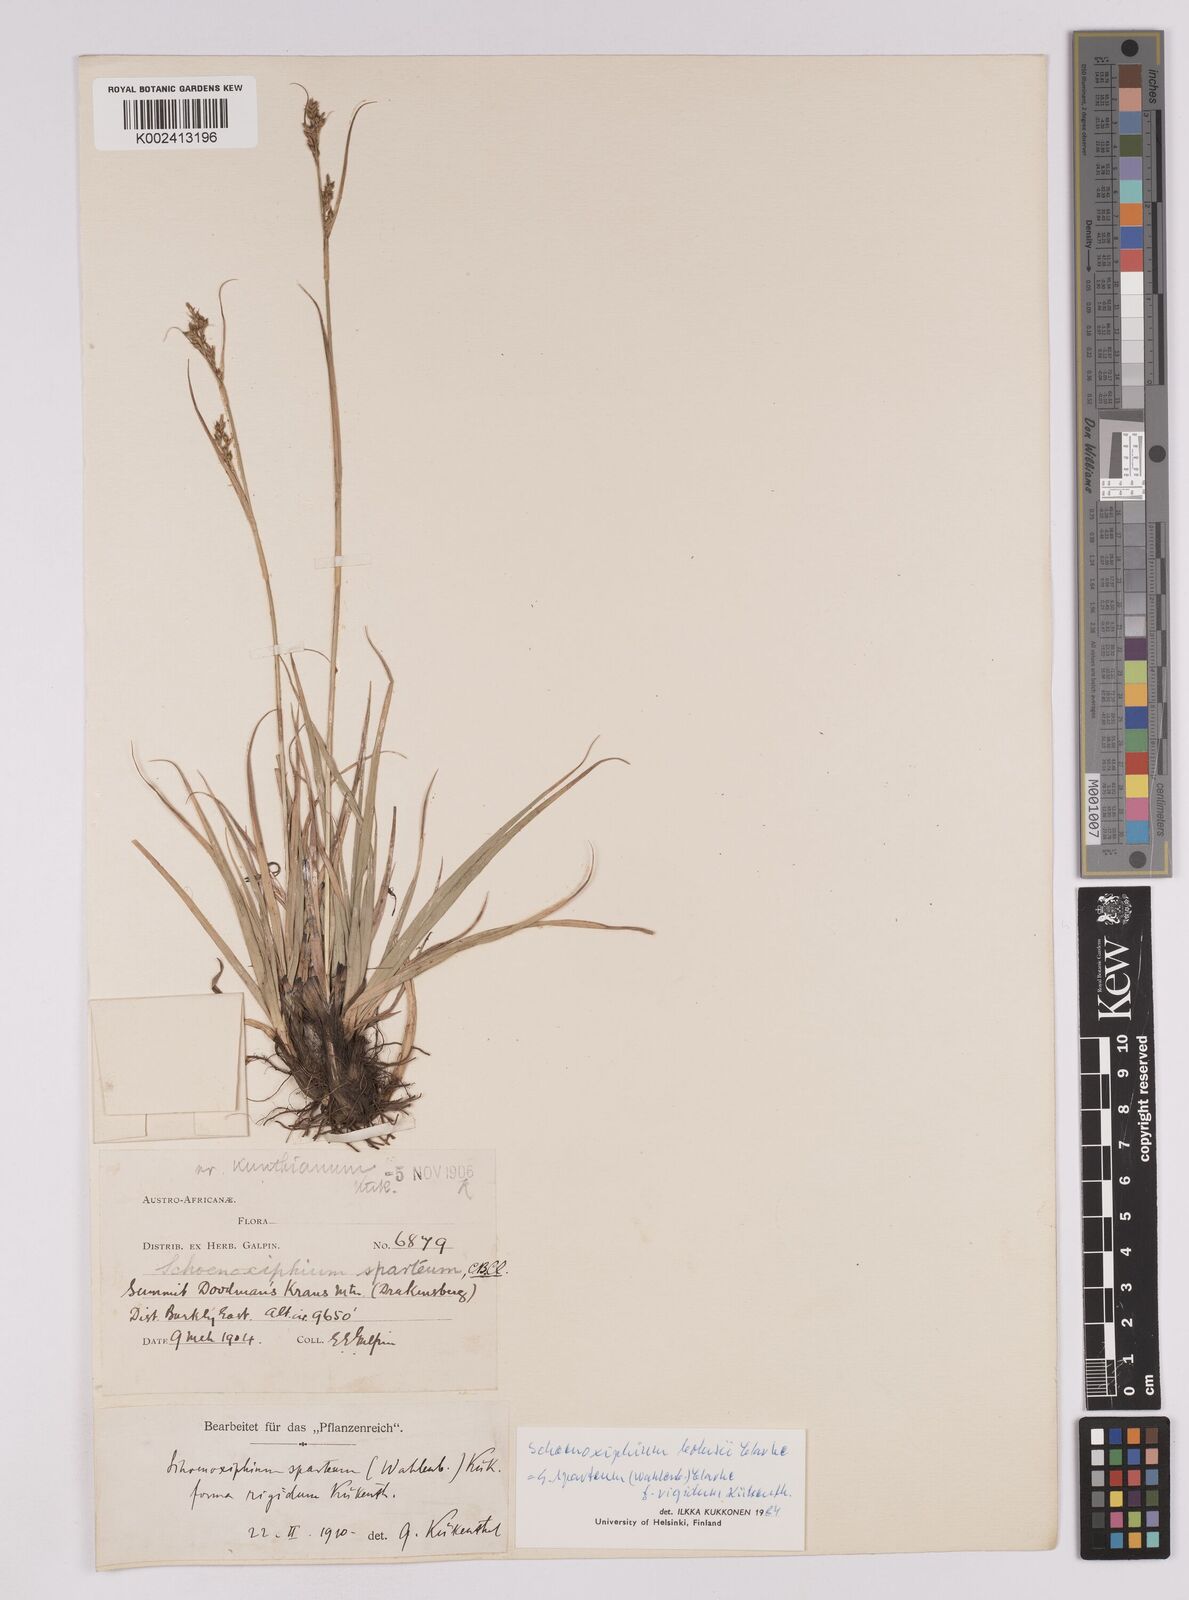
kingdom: Plantae
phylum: Tracheophyta
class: Liliopsida
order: Poales
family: Cyperaceae
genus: Carex
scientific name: Carex spartea
